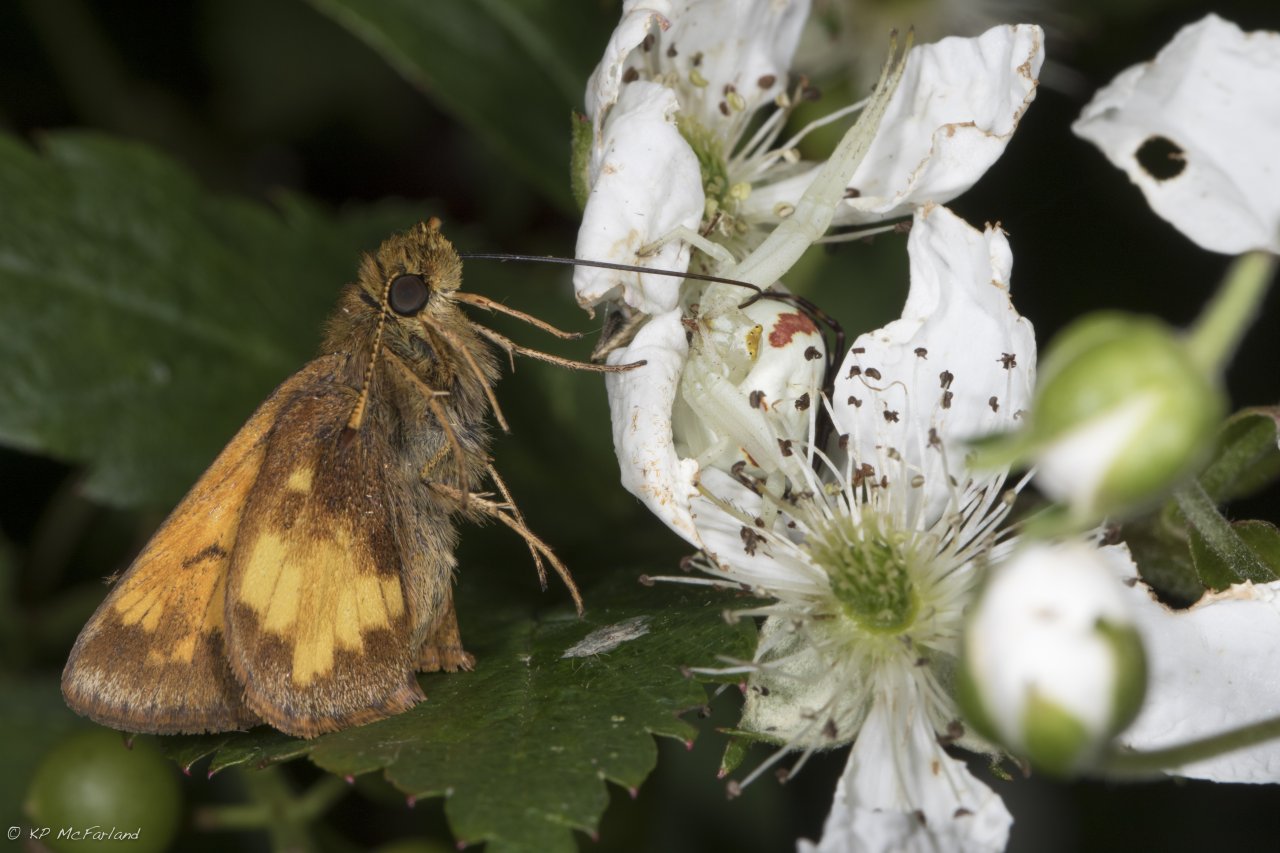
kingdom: Animalia
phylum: Arthropoda
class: Insecta
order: Lepidoptera
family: Hesperiidae
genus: Lon
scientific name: Lon hobomok
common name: Hobomok Skipper
